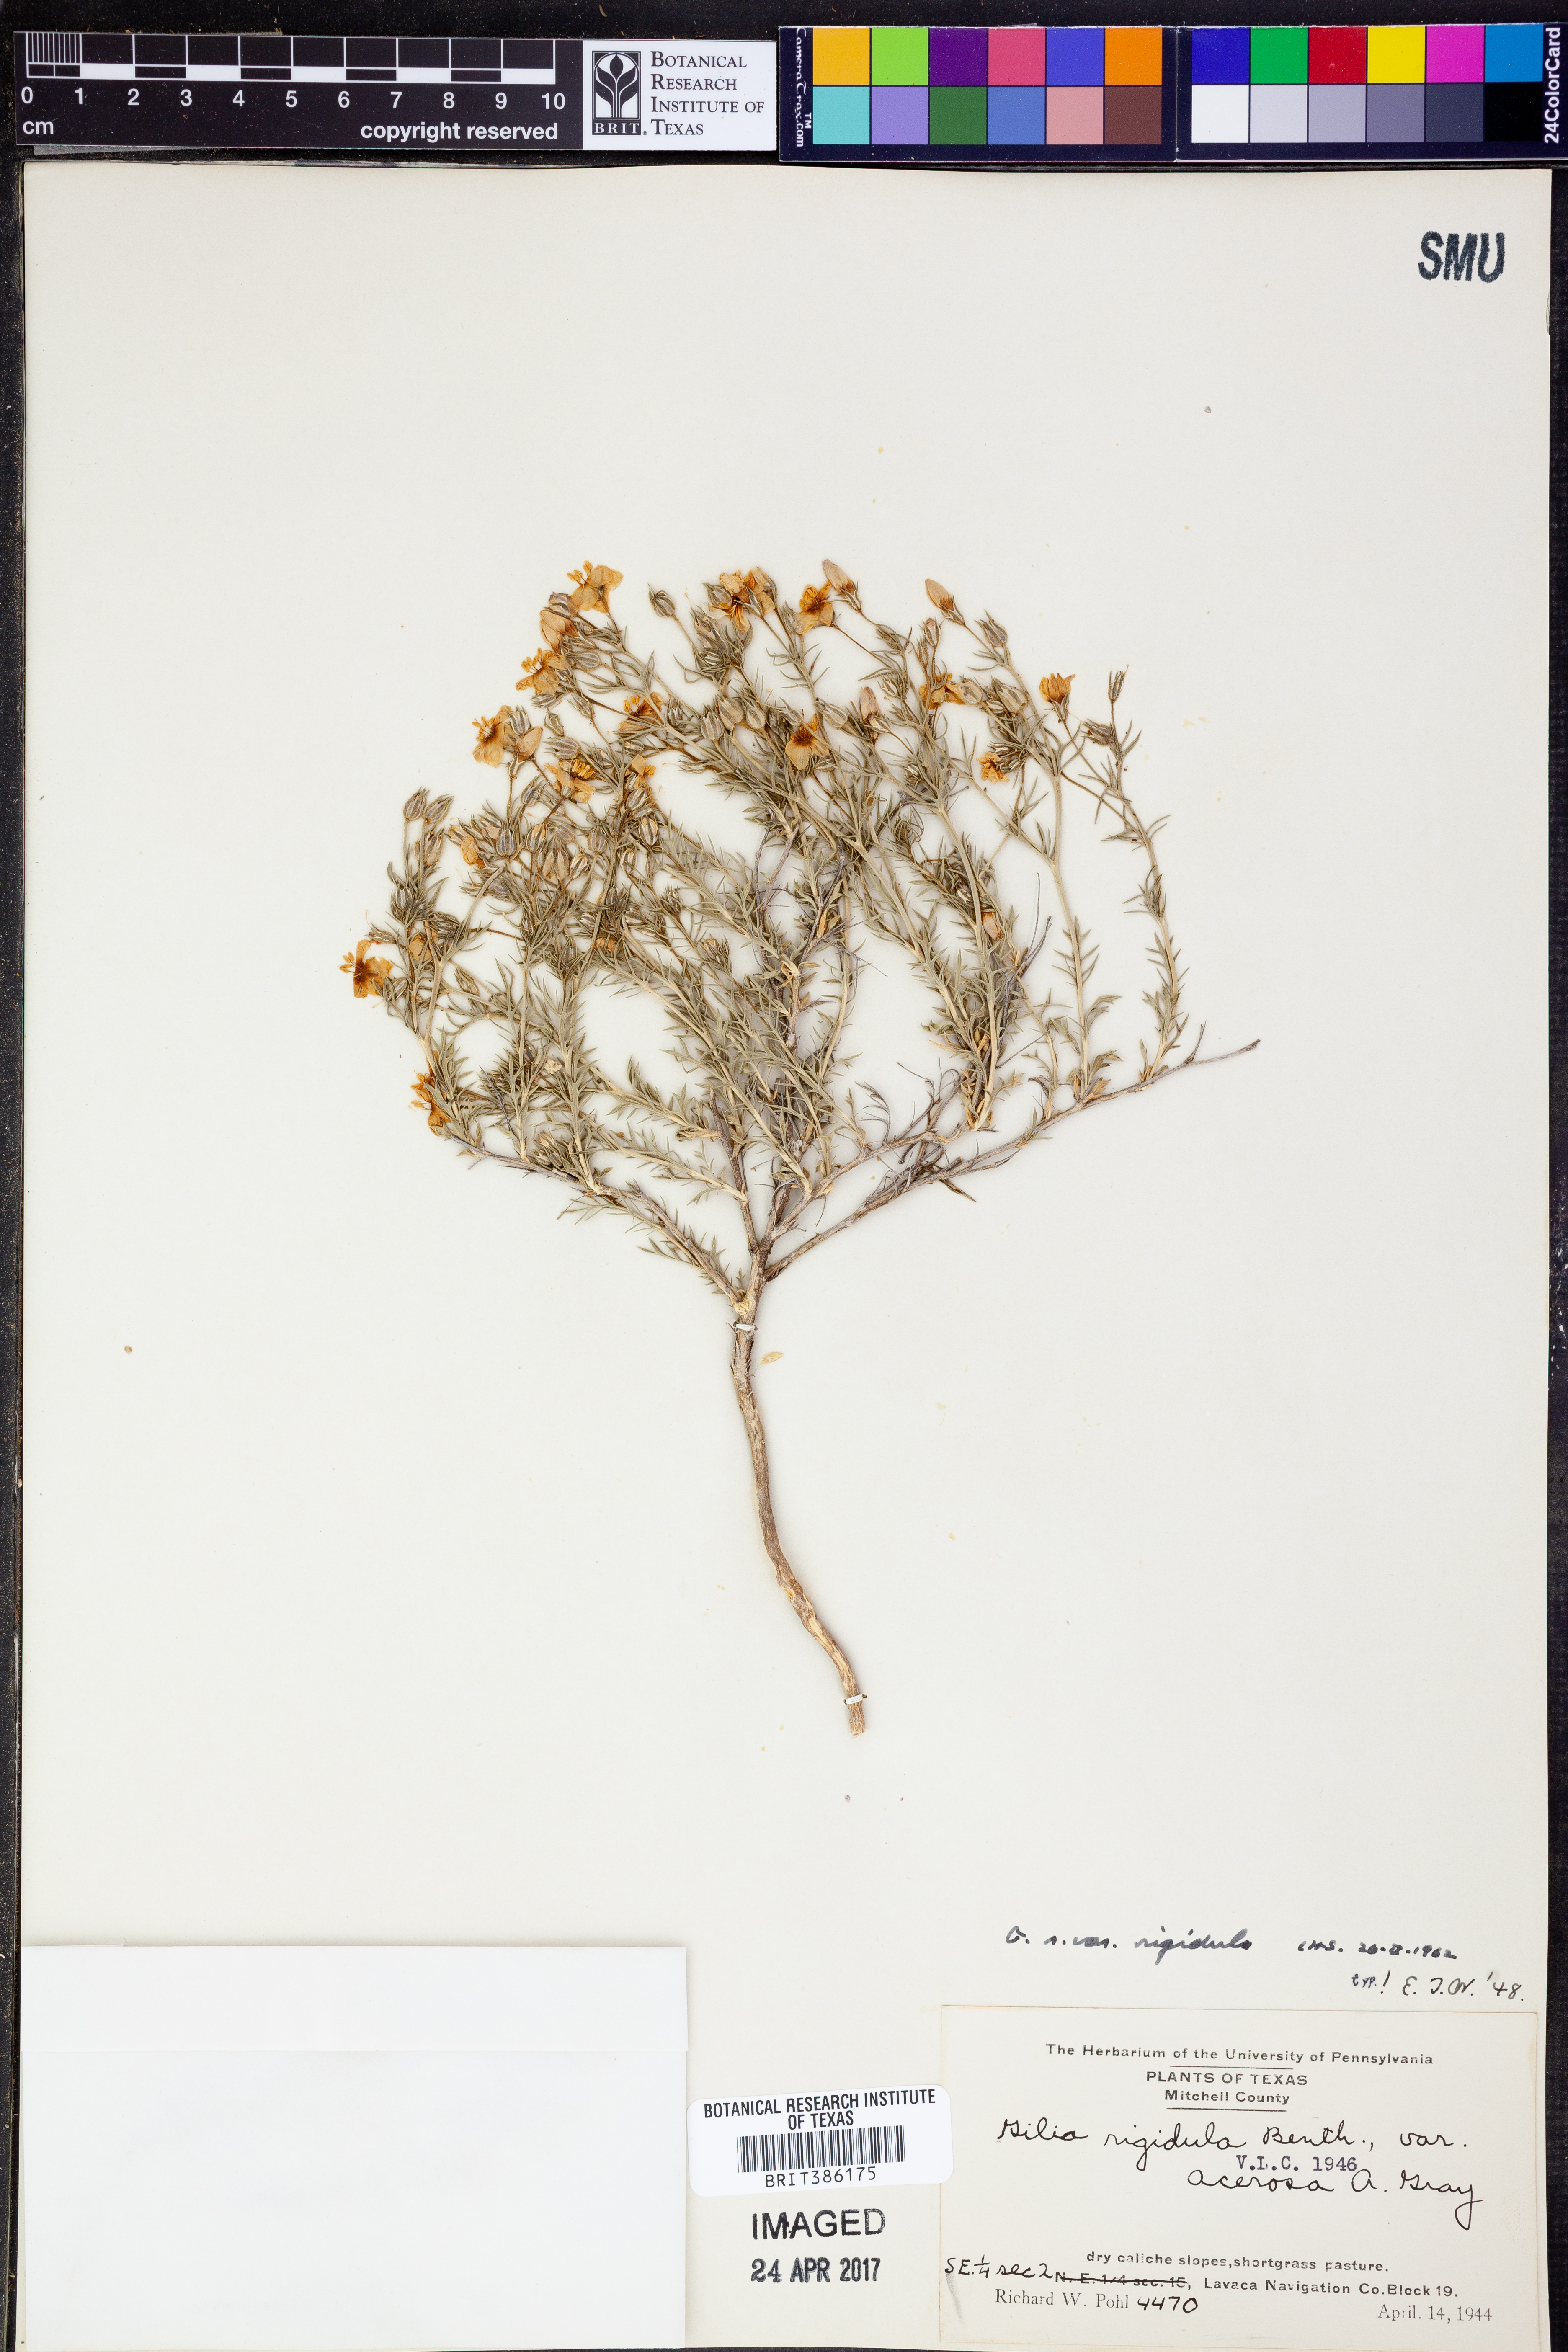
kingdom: Plantae
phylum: Tracheophyta
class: Magnoliopsida
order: Ericales
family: Polemoniaceae
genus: Giliastrum
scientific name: Giliastrum rigidulum
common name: Bluebowls
